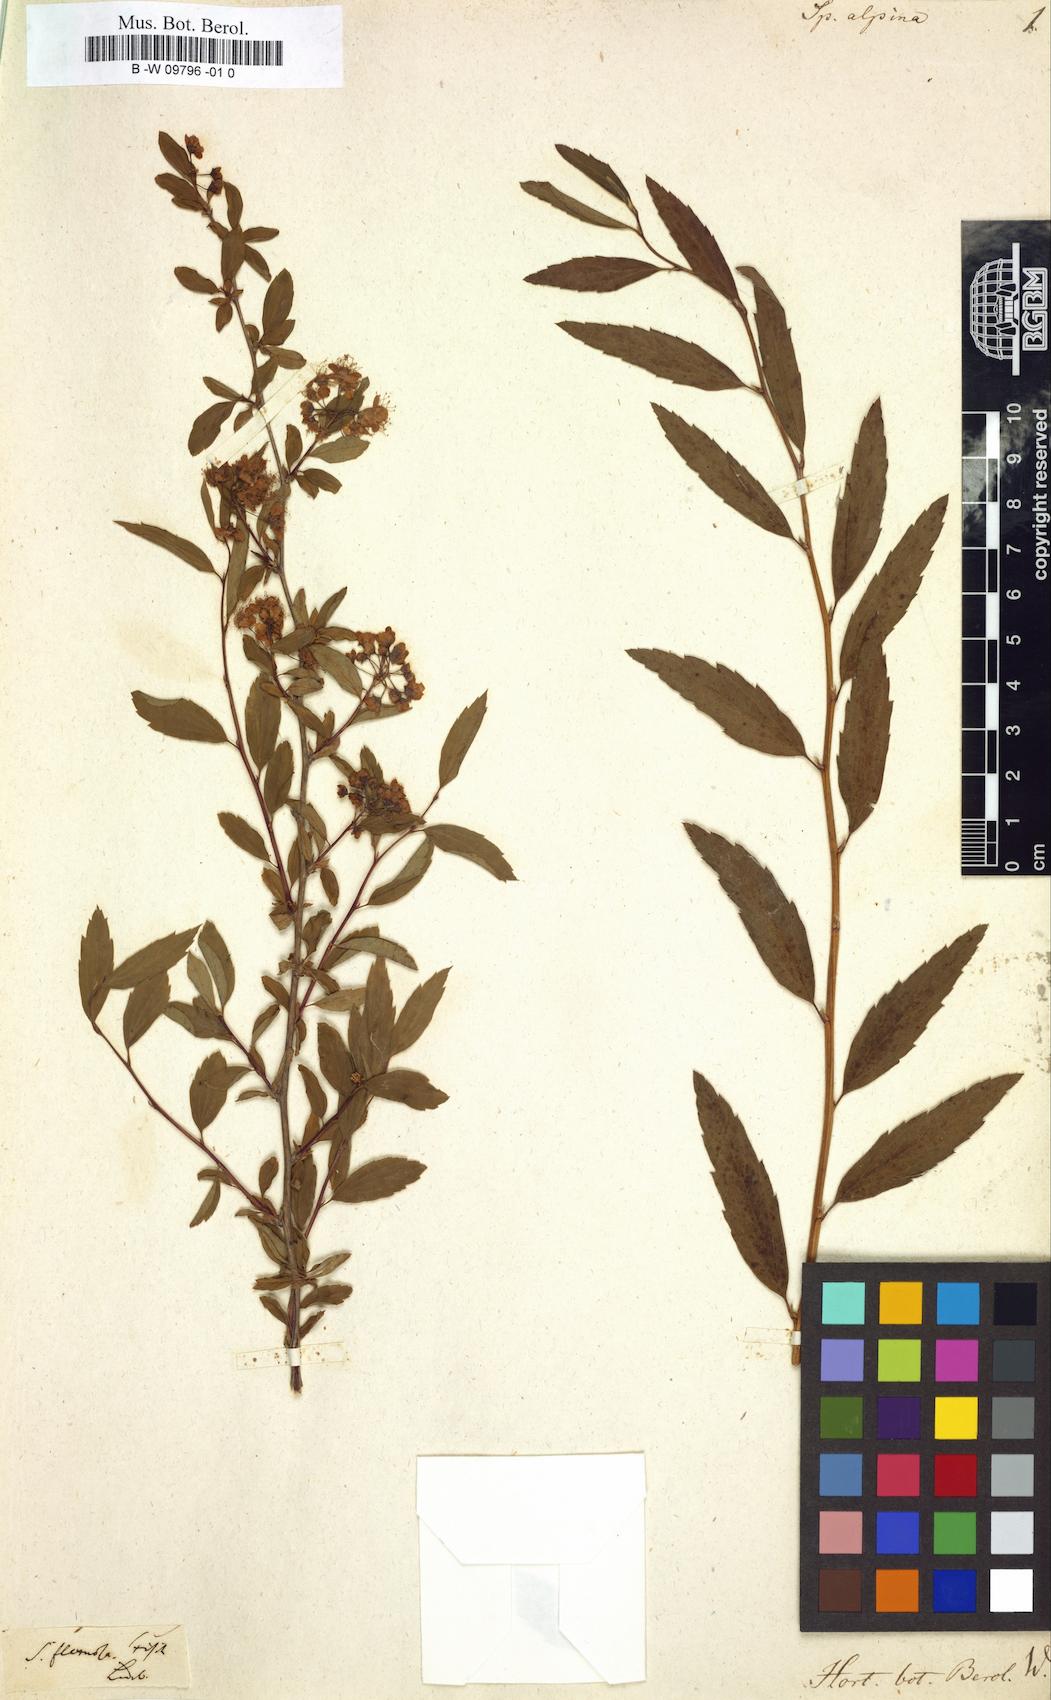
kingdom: Plantae
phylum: Tracheophyta
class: Magnoliopsida
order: Rosales
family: Rosaceae
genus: Spiraea
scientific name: Spiraea alpina
